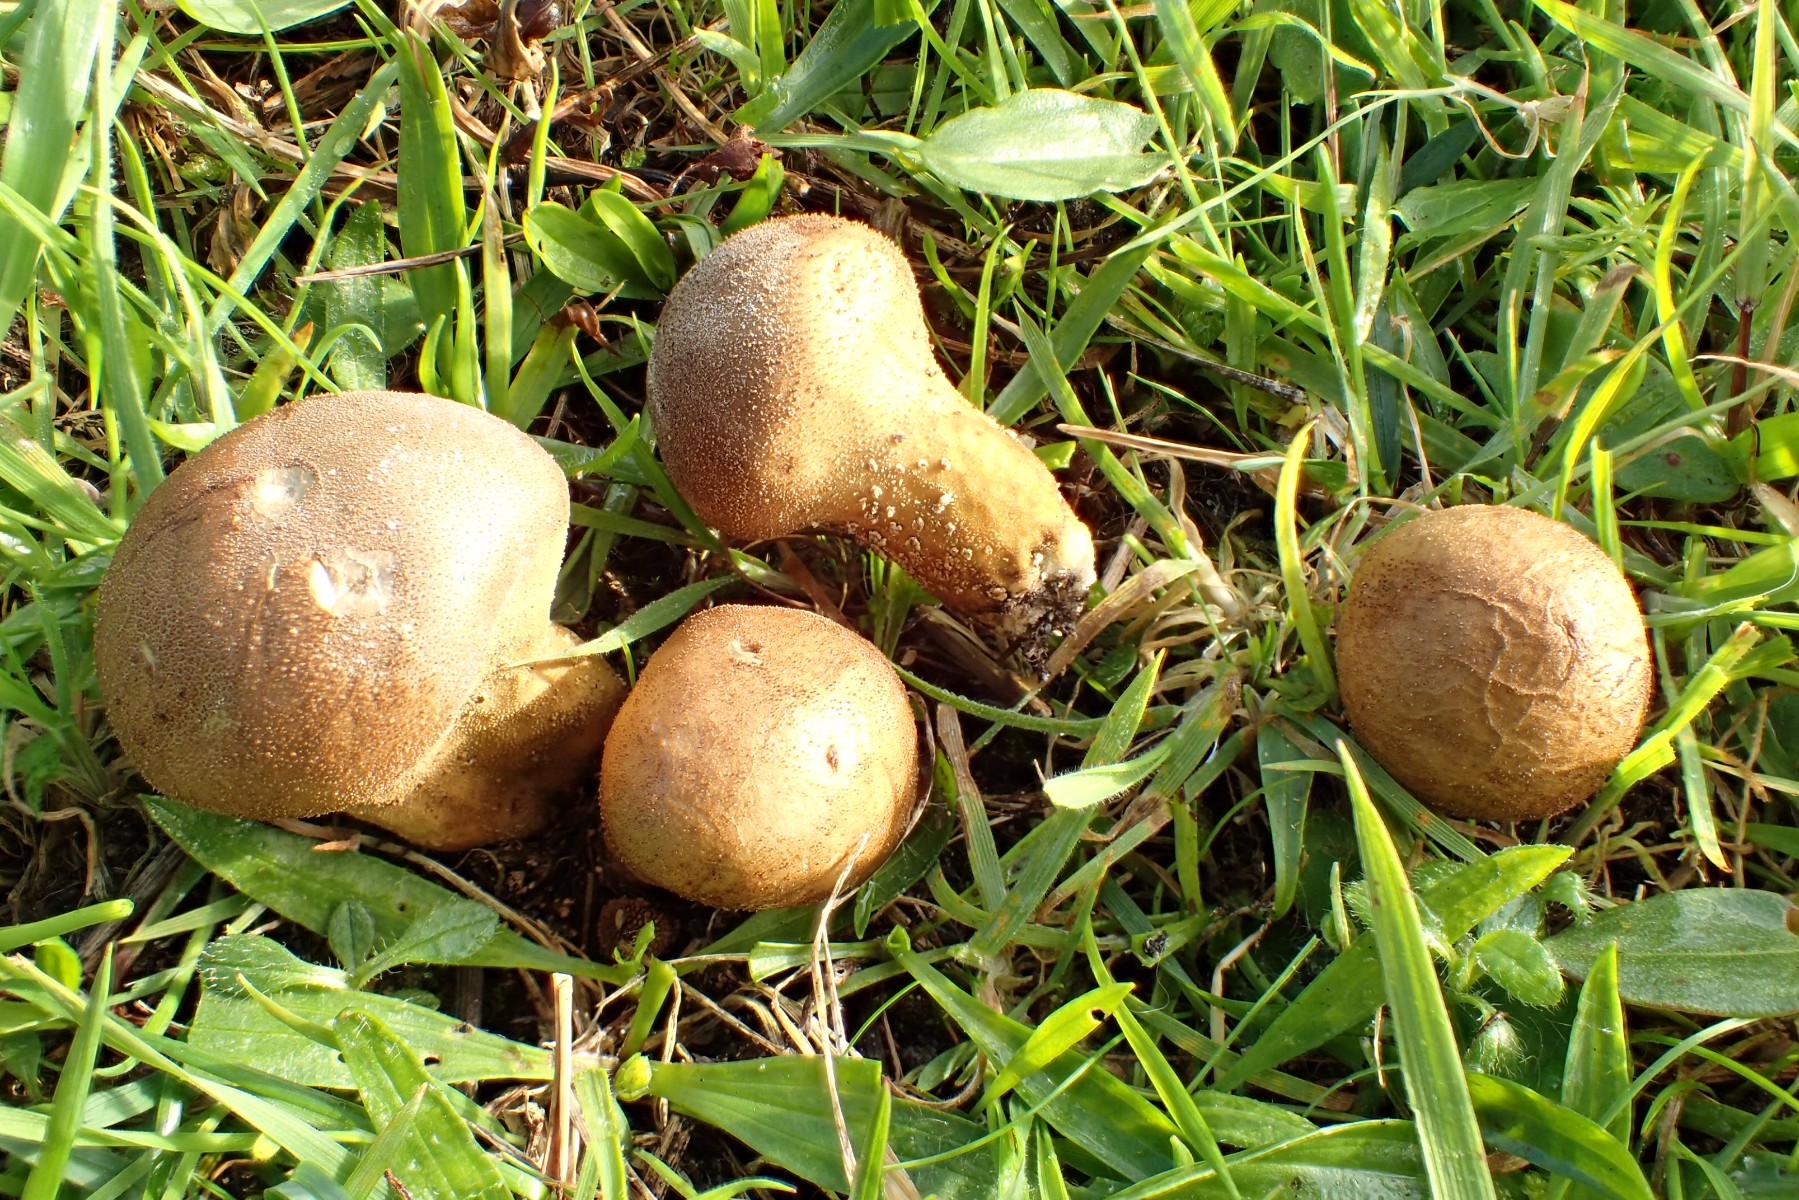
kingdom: Fungi
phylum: Basidiomycota
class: Agaricomycetes
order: Agaricales
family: Lycoperdaceae
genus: Lycoperdon
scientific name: Lycoperdon lividum
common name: mark-støvbold
